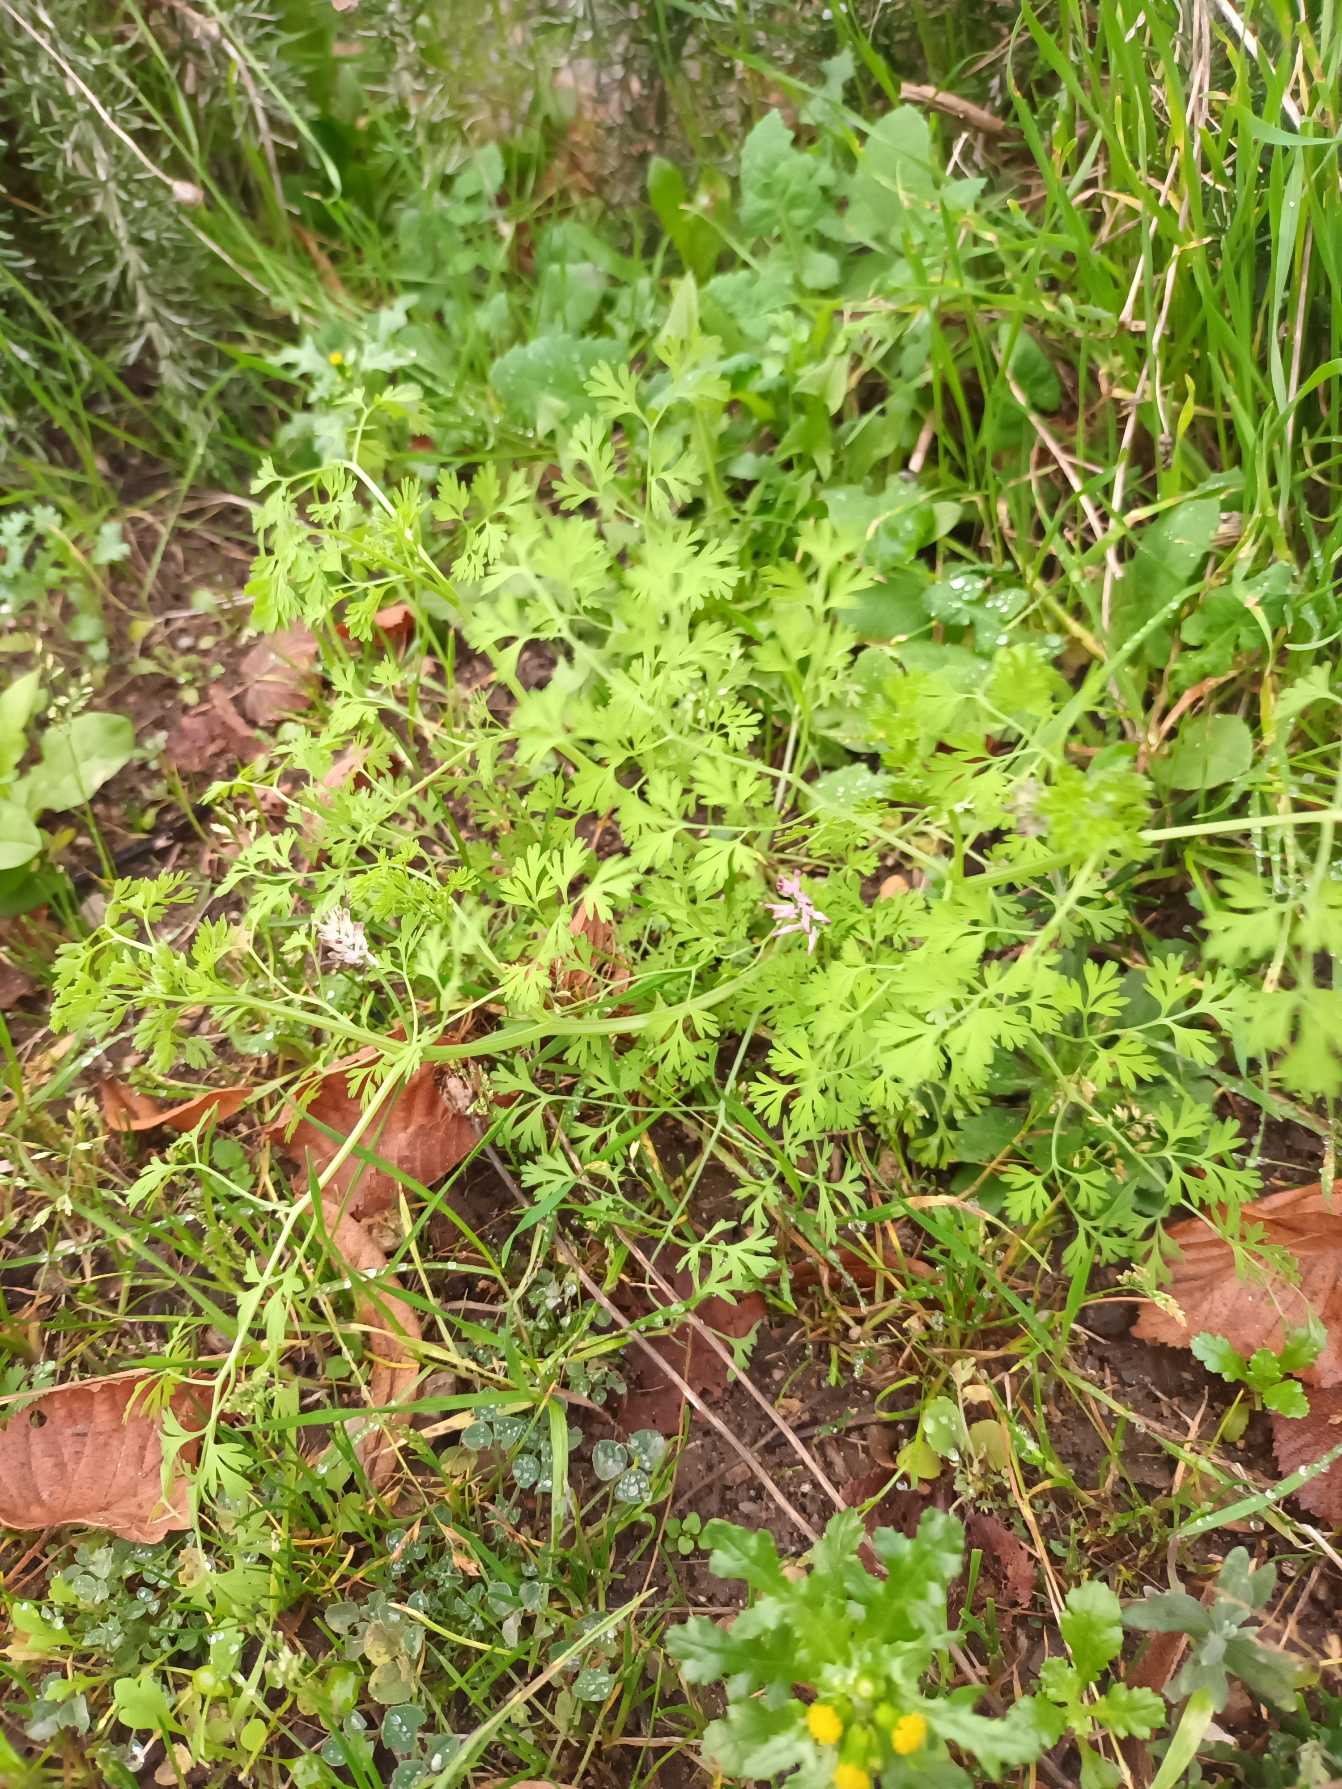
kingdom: Plantae
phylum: Tracheophyta
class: Magnoliopsida
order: Ranunculales
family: Papaveraceae
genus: Fumaria
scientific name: Fumaria officinalis
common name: Læge-jordrøg
